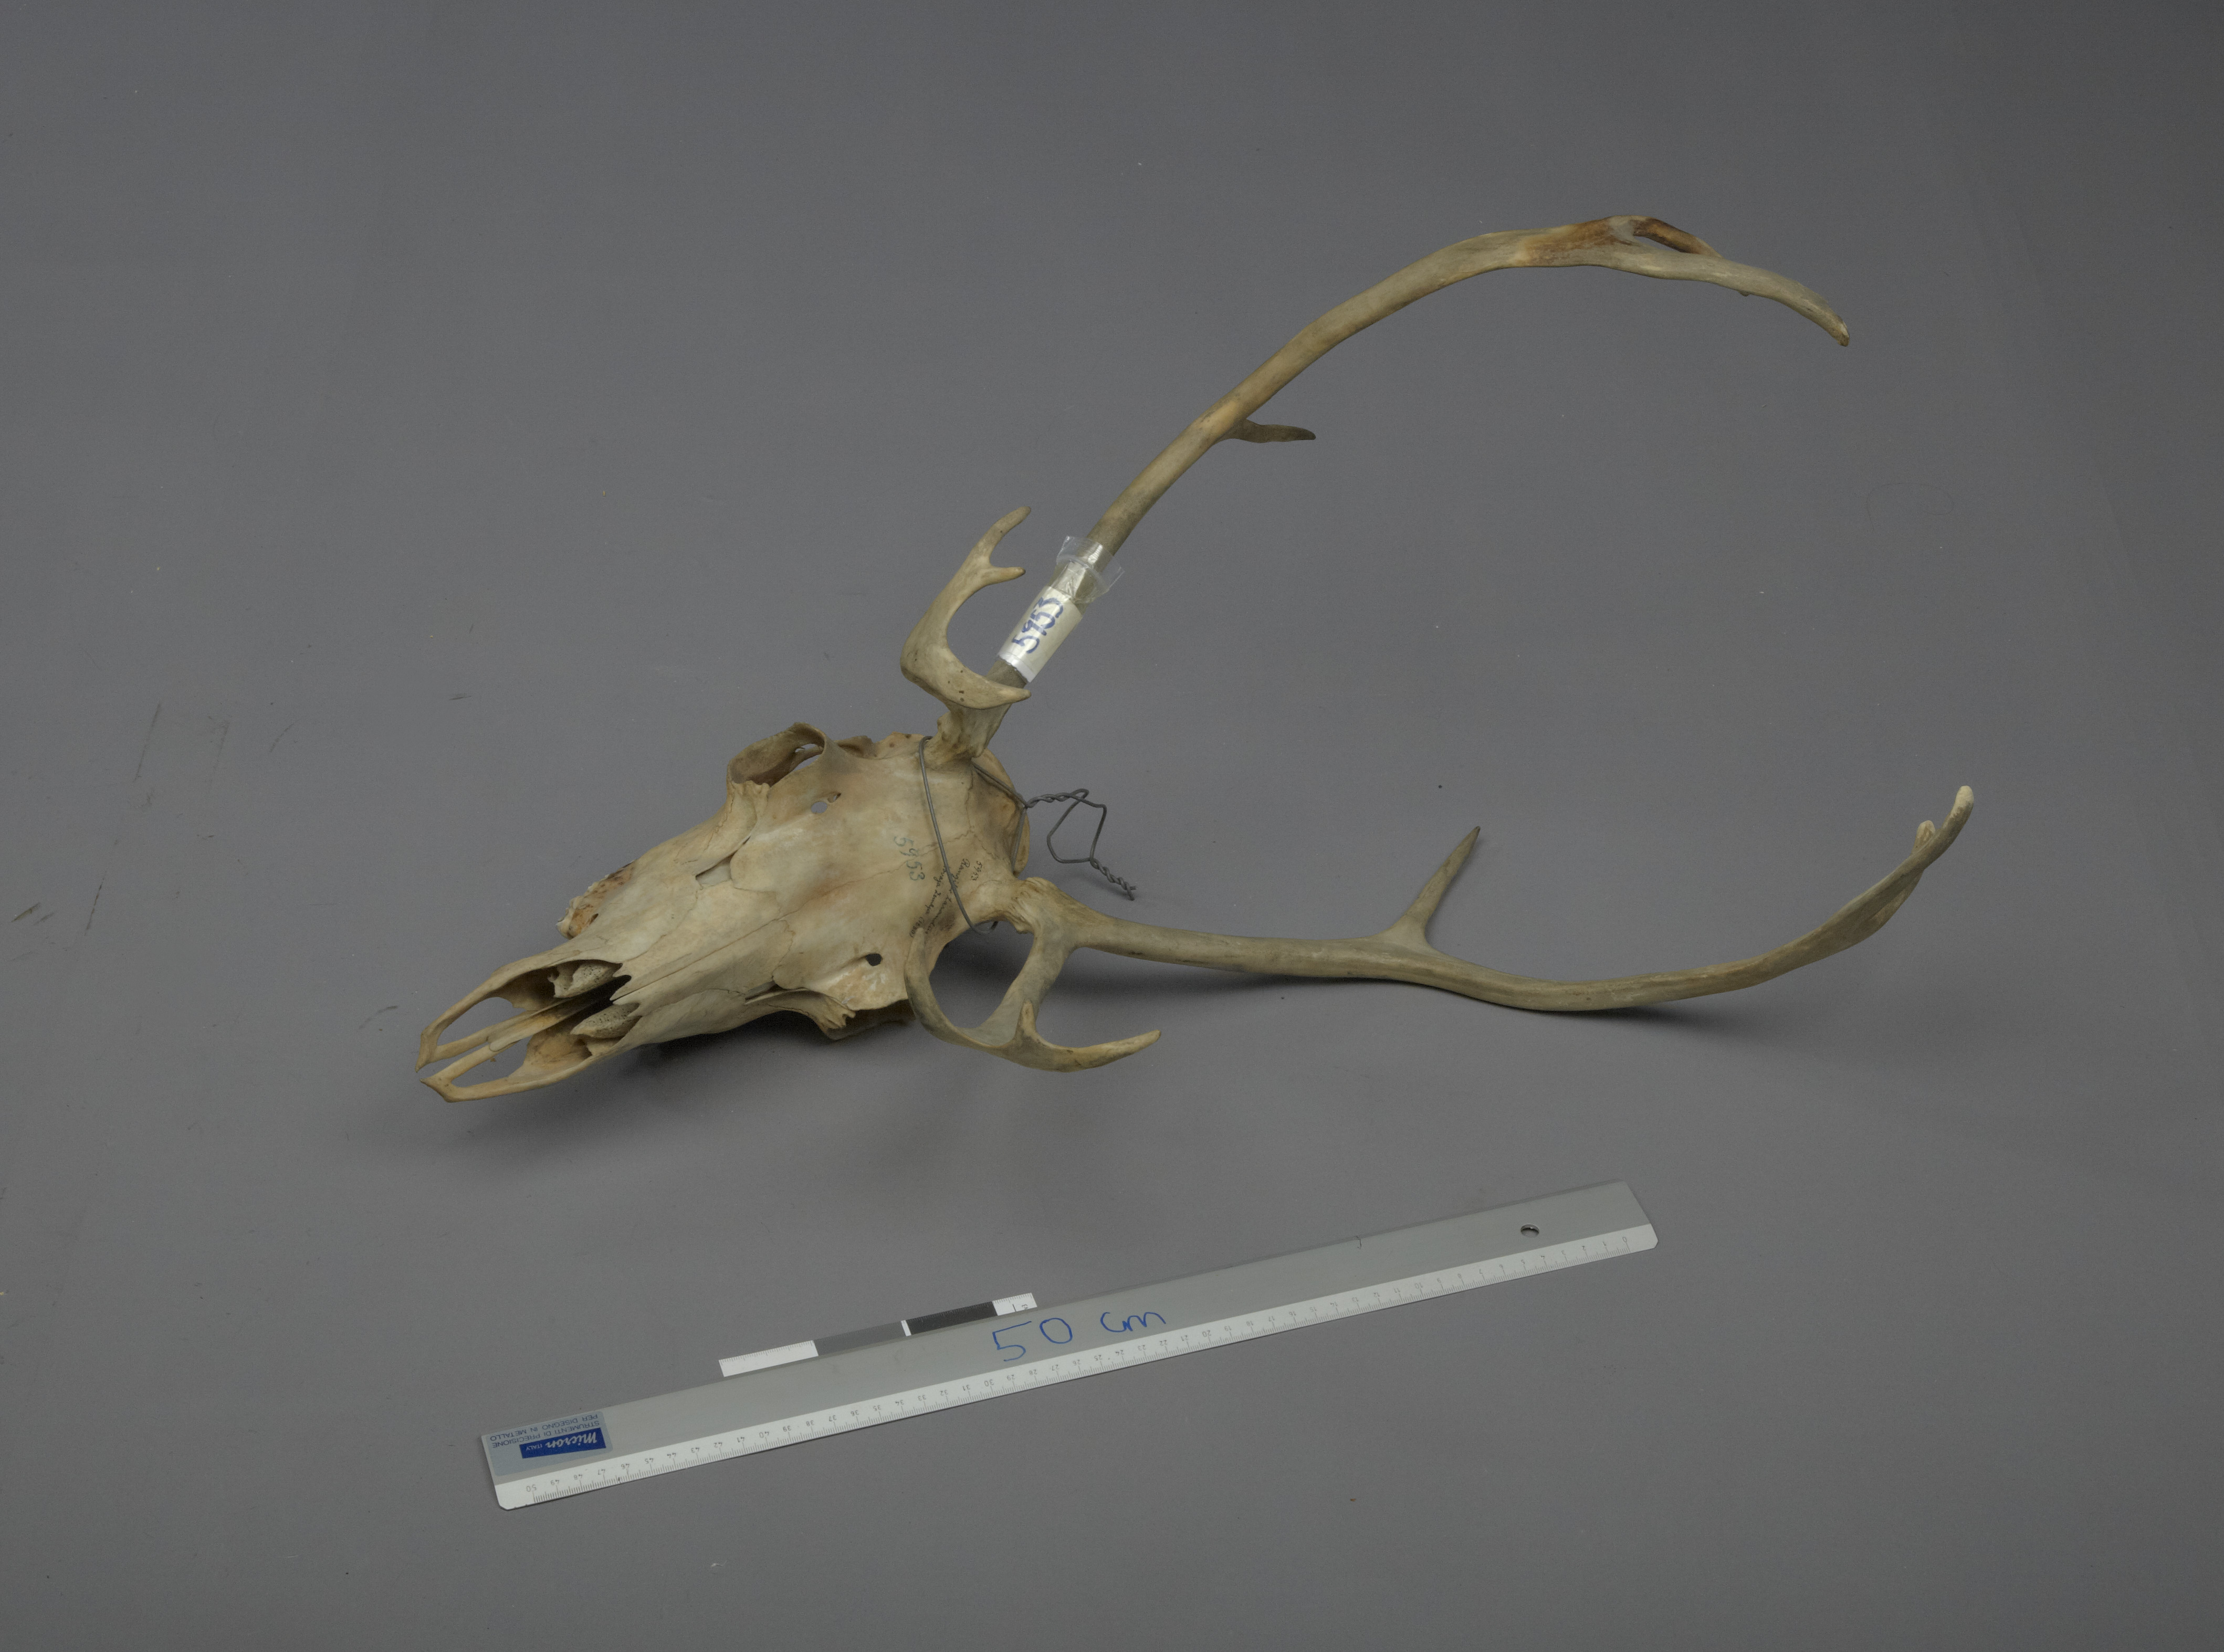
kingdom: Animalia
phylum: Chordata
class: Mammalia
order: Artiodactyla
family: Cervidae
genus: Rangifer
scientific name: Rangifer tarandus
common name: Reindeer
